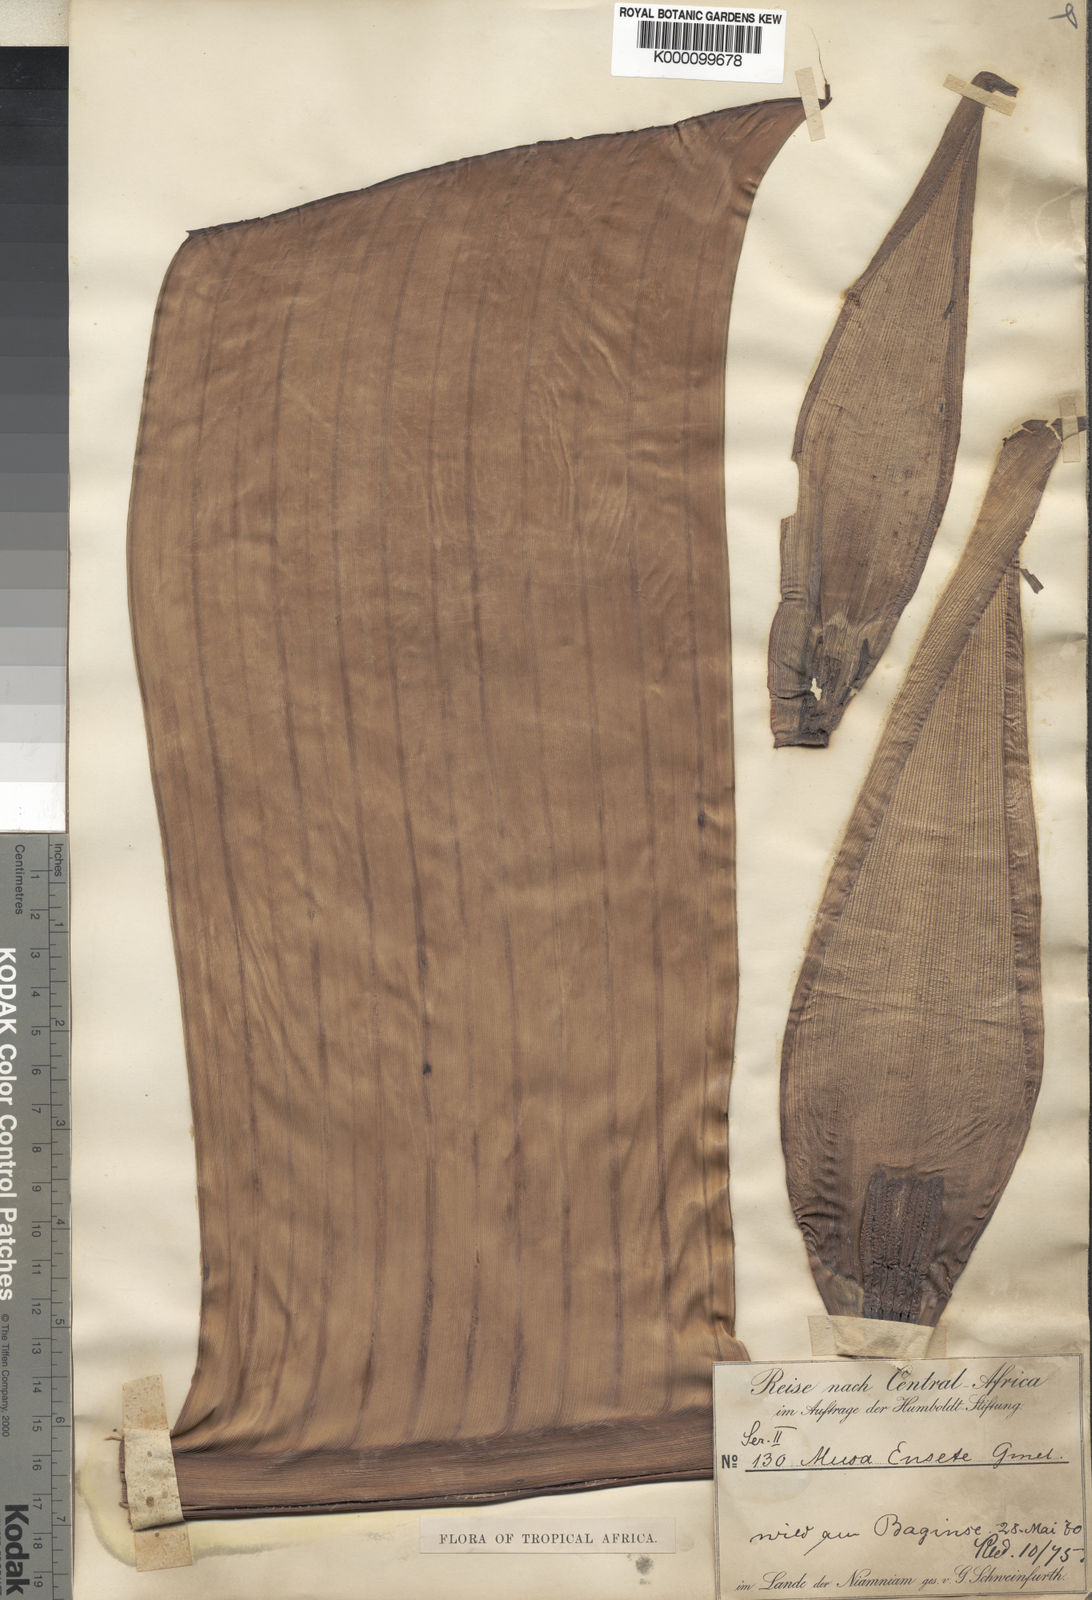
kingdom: Plantae
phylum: Tracheophyta
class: Liliopsida
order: Zingiberales
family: Musaceae
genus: Ensete
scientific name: Ensete livingstonianum
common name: Livingston's banana
